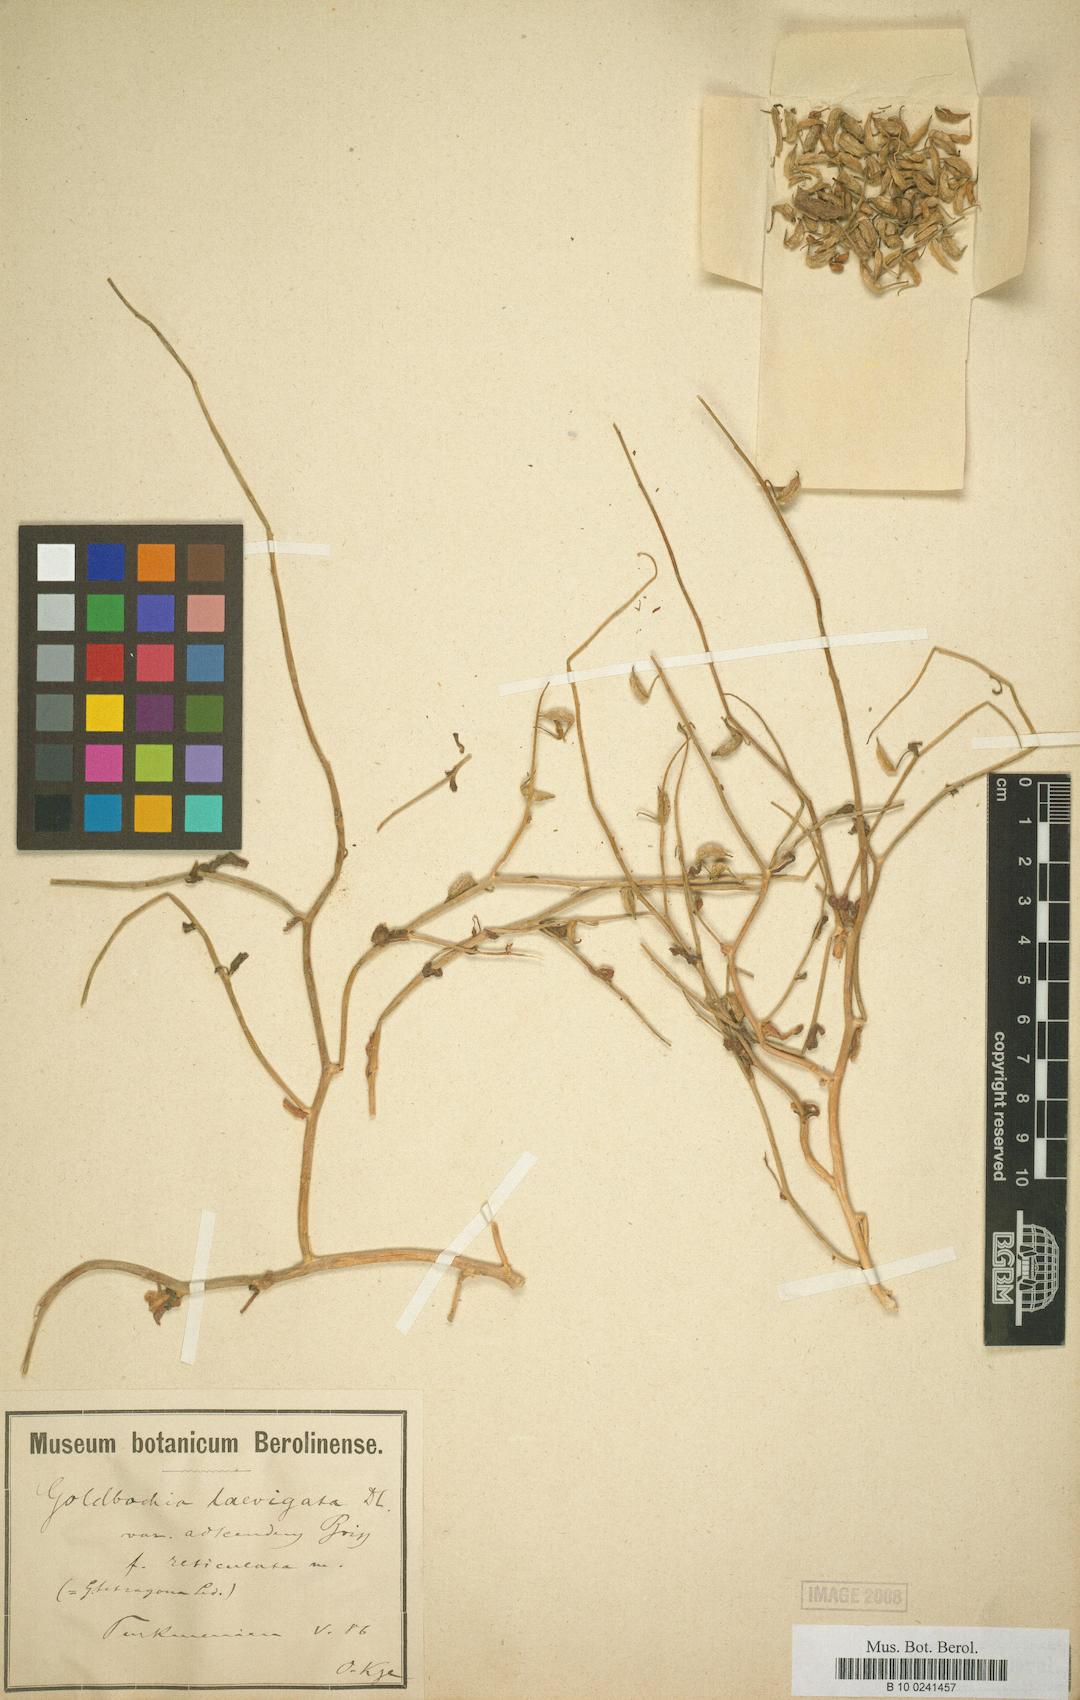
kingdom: Plantae
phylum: Tracheophyta
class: Magnoliopsida
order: Brassicales
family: Brassicaceae
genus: Goldbachia
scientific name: Goldbachia laevigata
